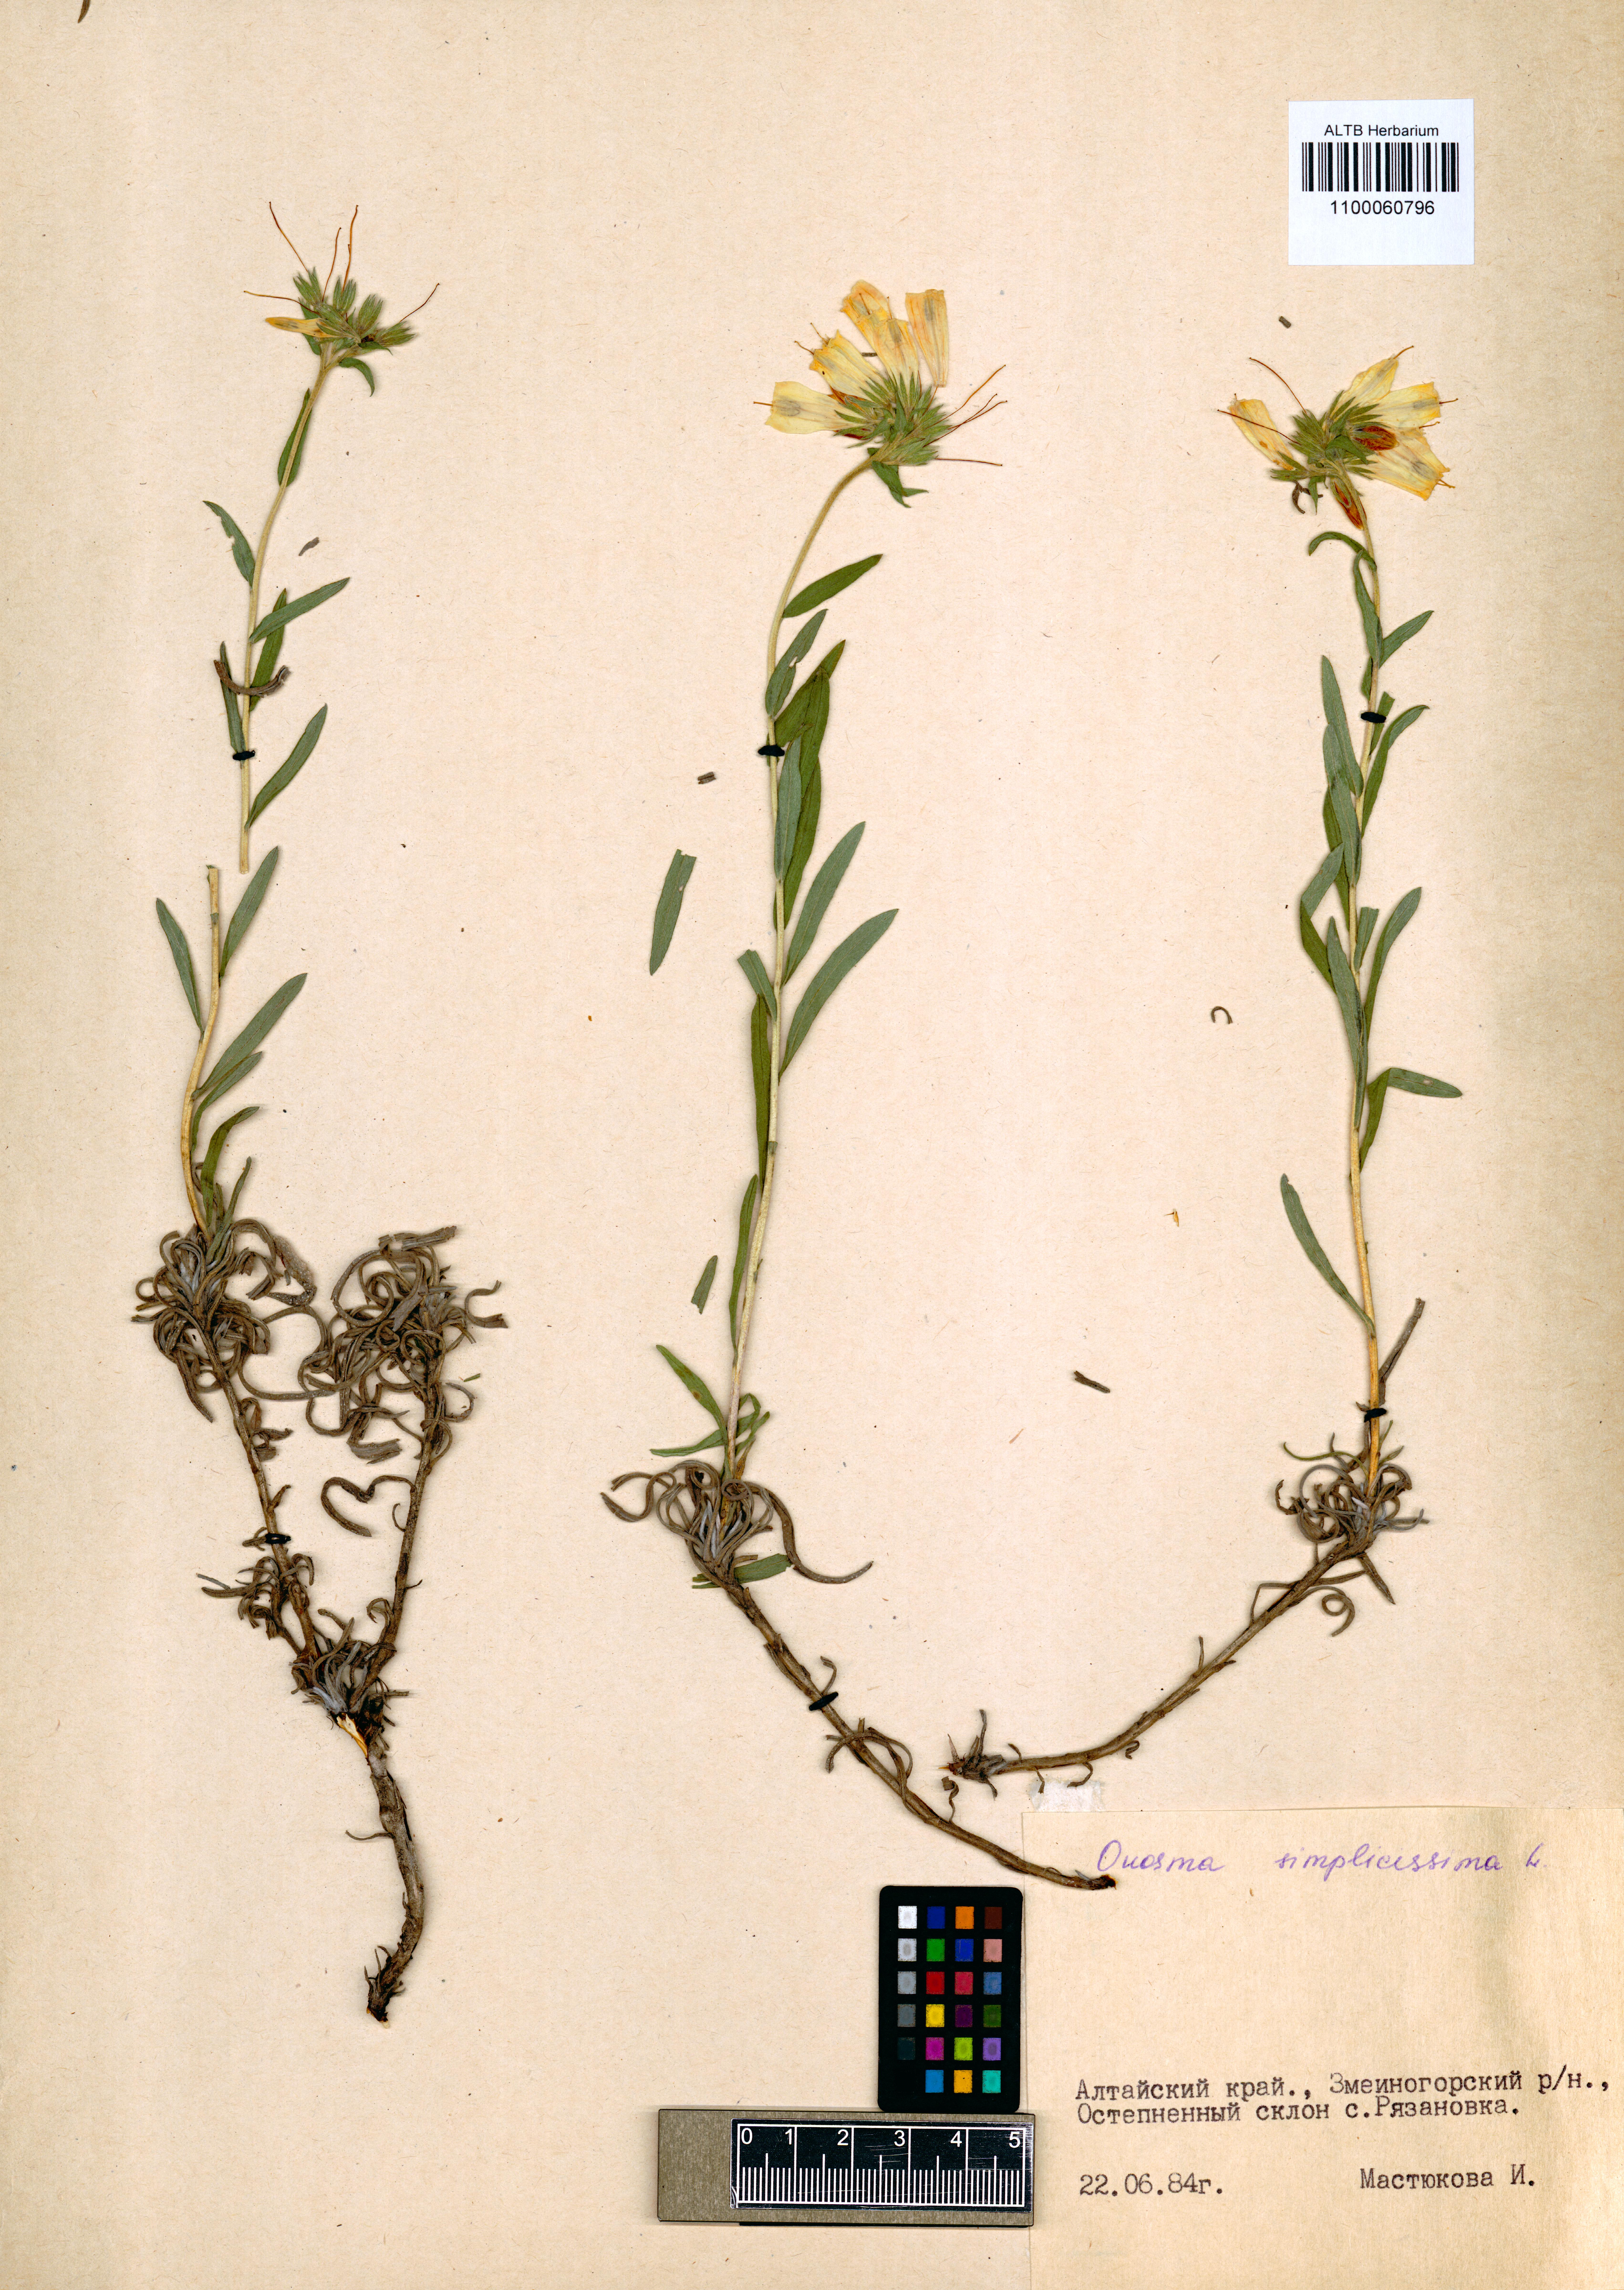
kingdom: Plantae
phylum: Tracheophyta
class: Magnoliopsida
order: Boraginales
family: Boraginaceae
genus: Onosma
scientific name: Onosma simplicissima
